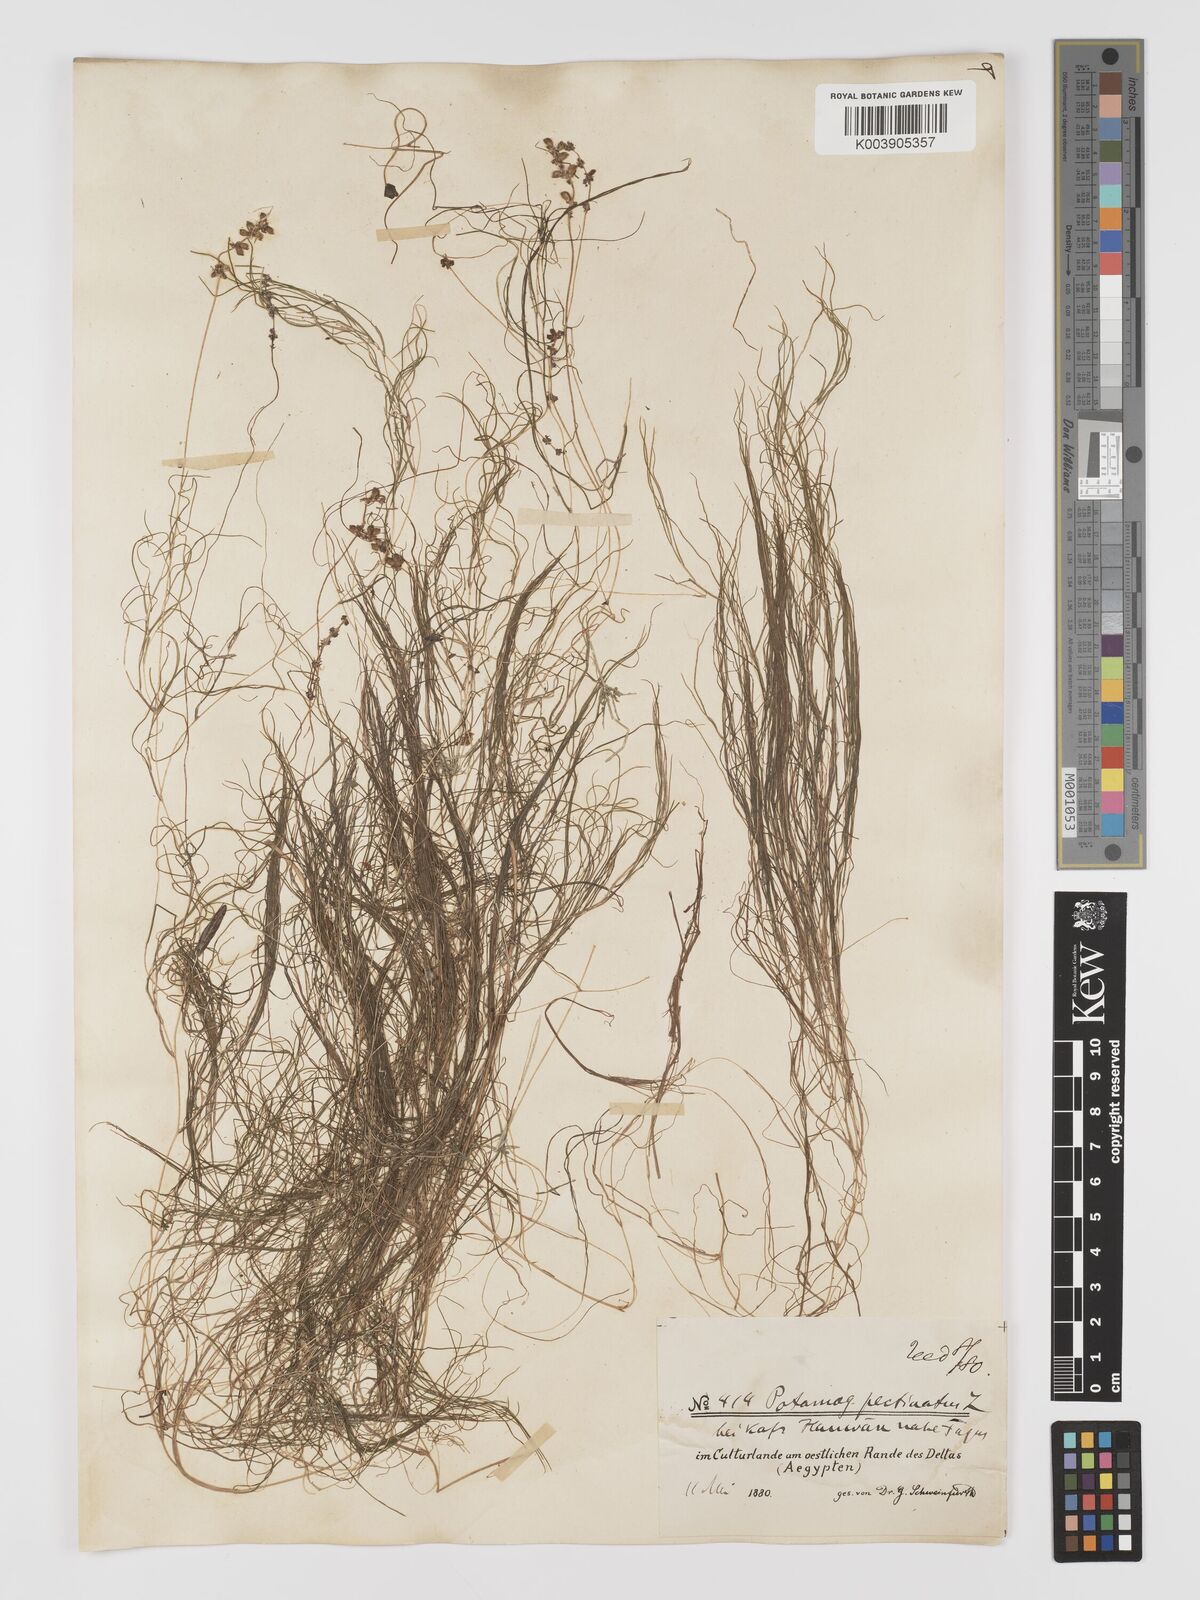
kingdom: Plantae
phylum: Tracheophyta
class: Liliopsida
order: Alismatales
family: Potamogetonaceae
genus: Stuckenia
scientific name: Stuckenia pectinata
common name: Sago pondweed
